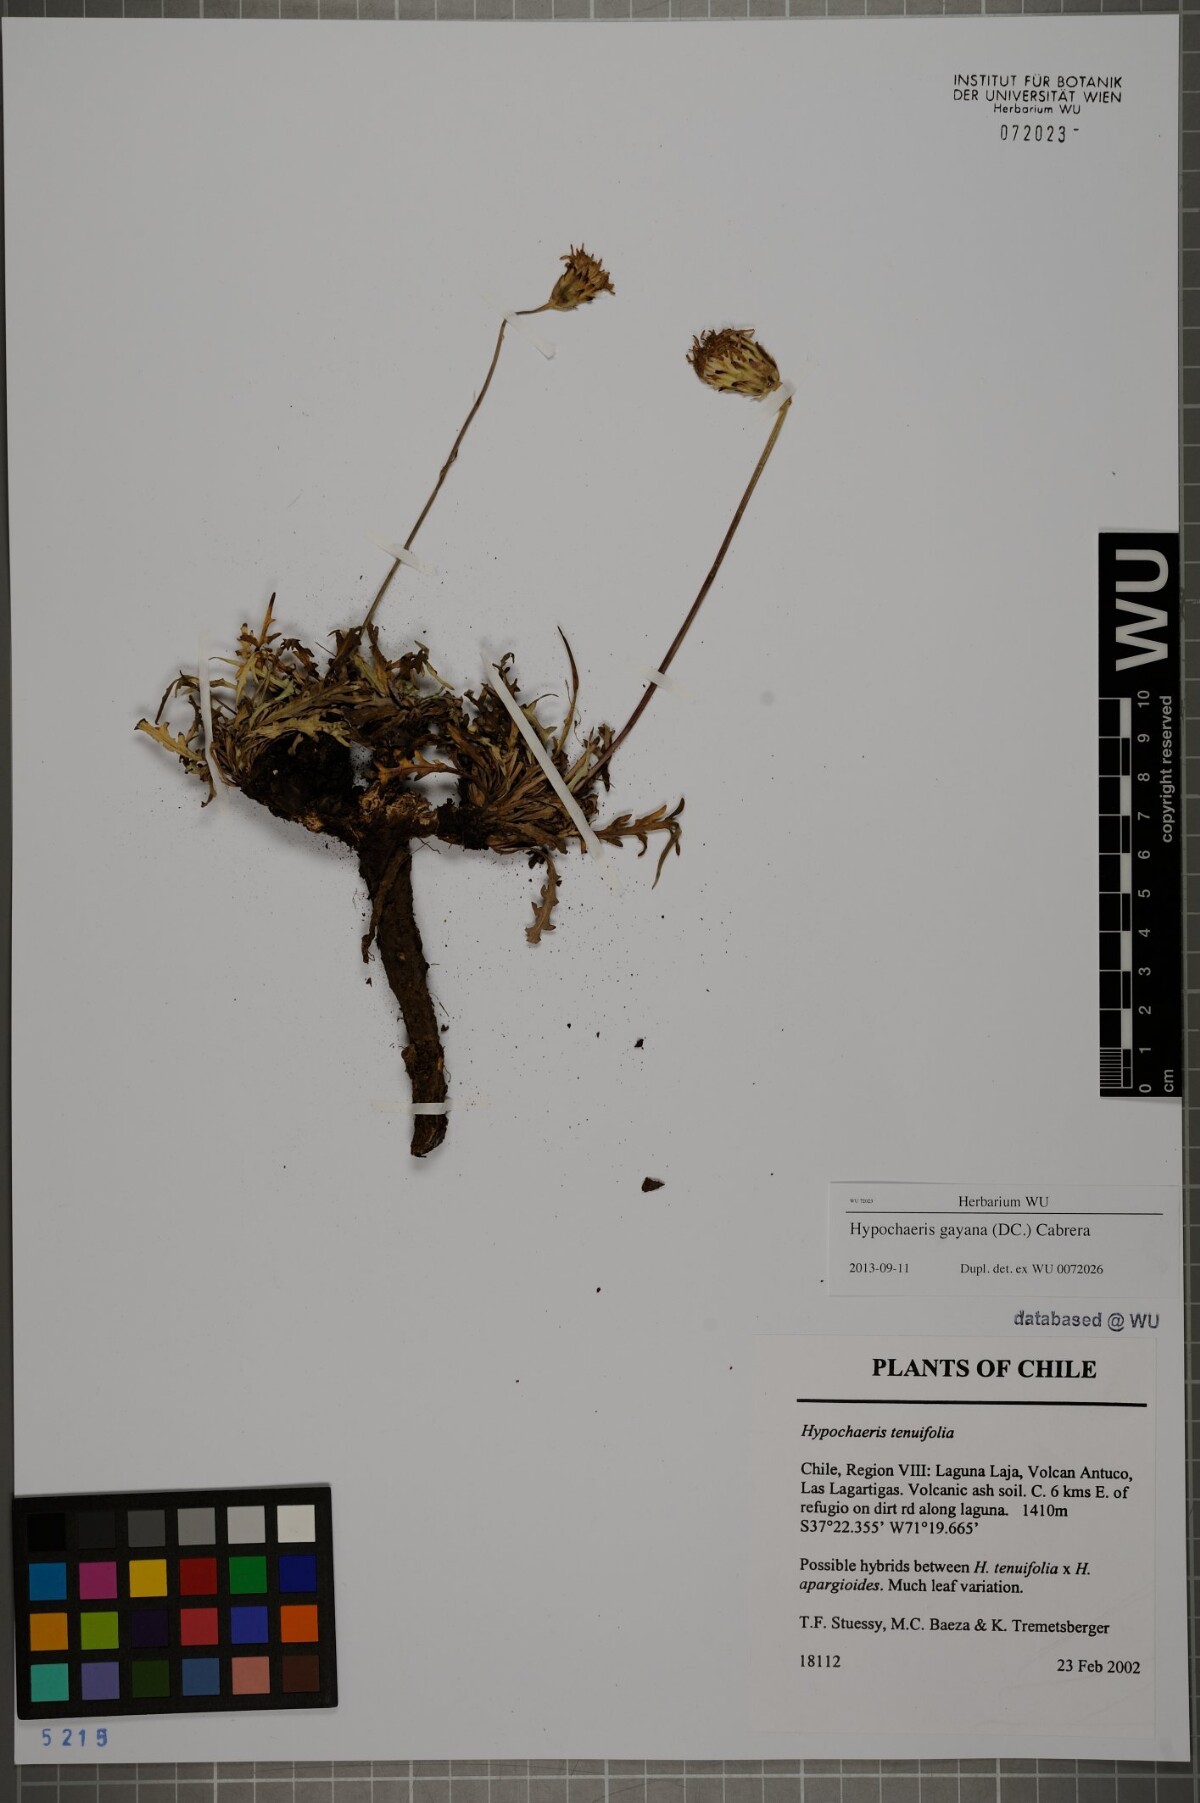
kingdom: Plantae
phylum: Tracheophyta
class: Magnoliopsida
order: Asterales
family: Asteraceae
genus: Hypochaeris
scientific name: Hypochaeris melanolepis
